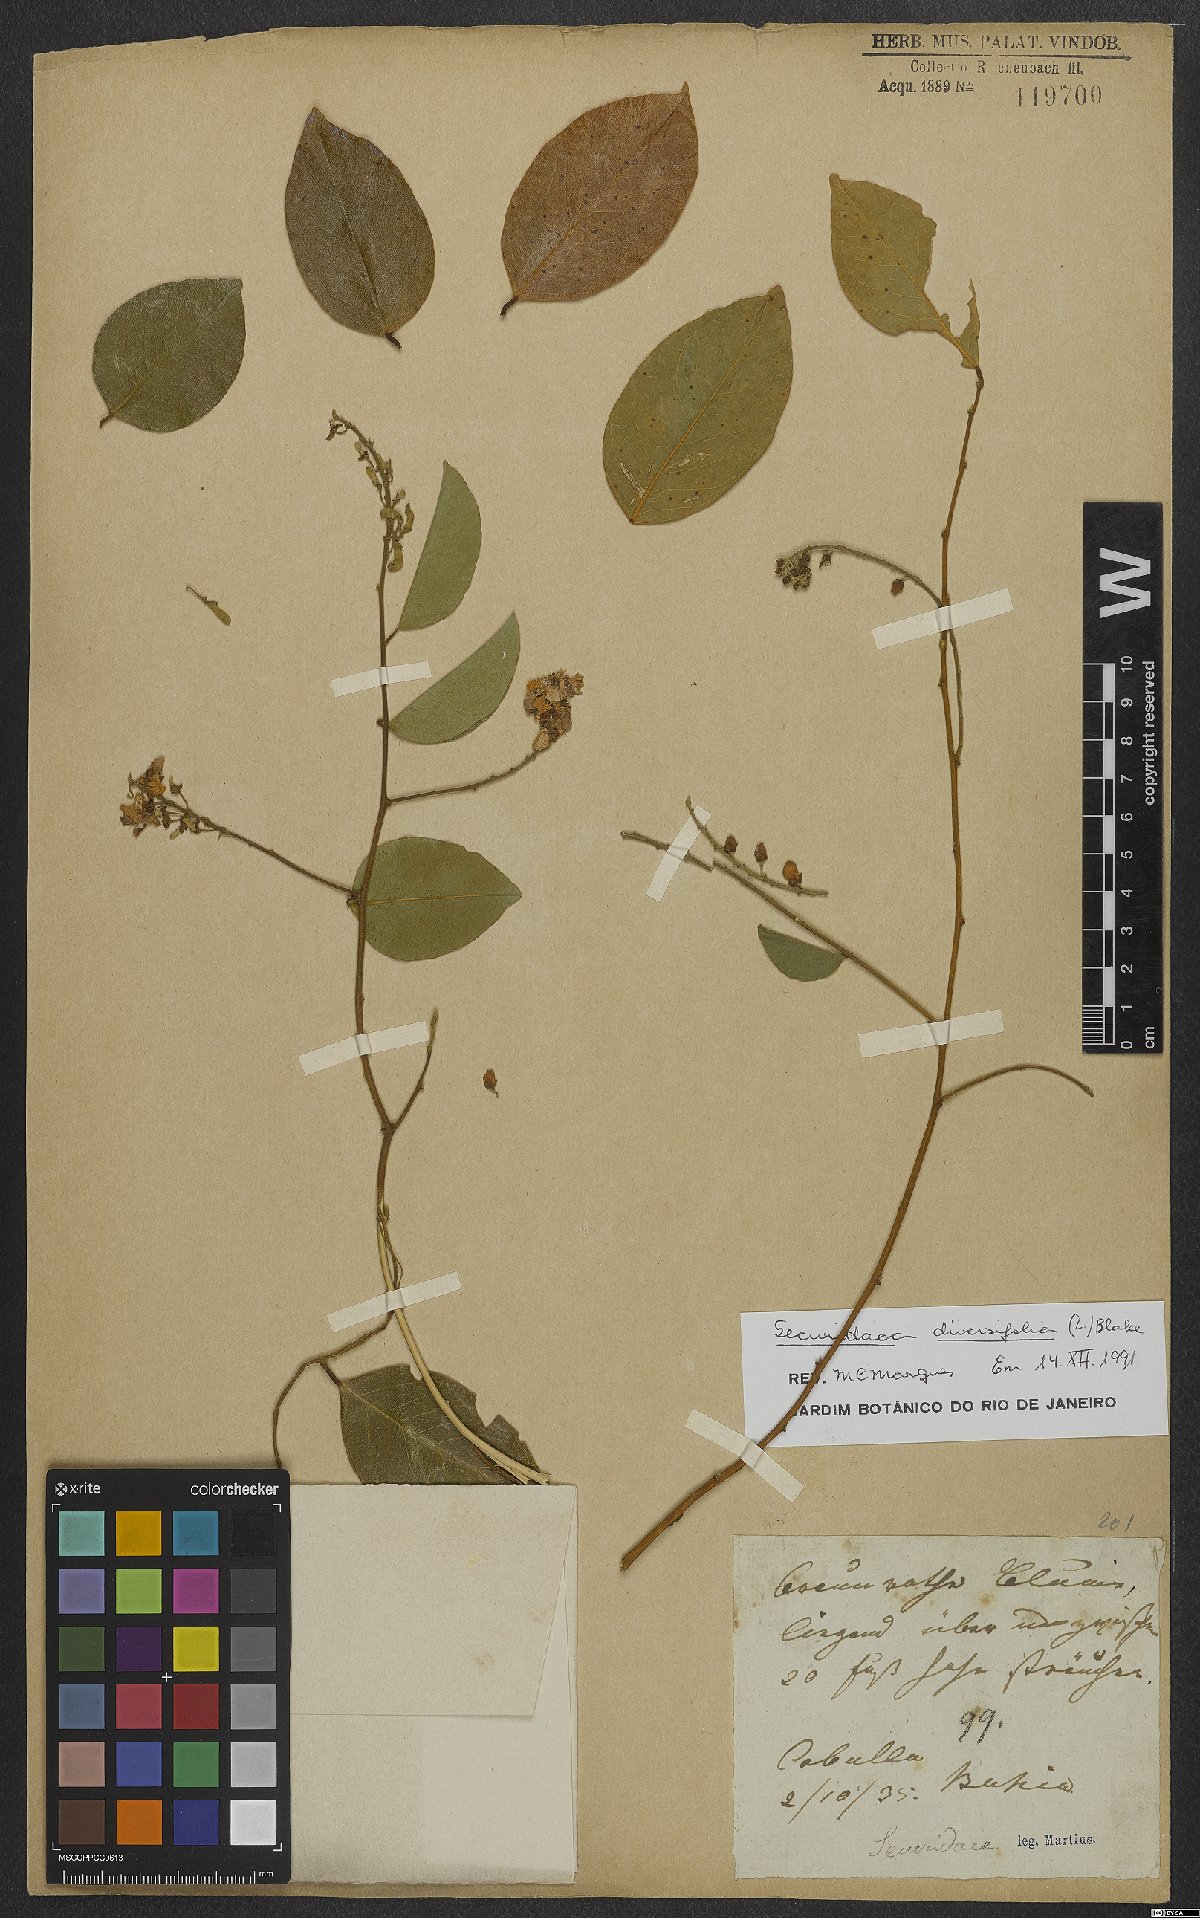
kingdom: Plantae
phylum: Tracheophyta
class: Magnoliopsida
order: Fabales
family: Polygalaceae
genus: Securidaca
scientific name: Securidaca diversifolia
